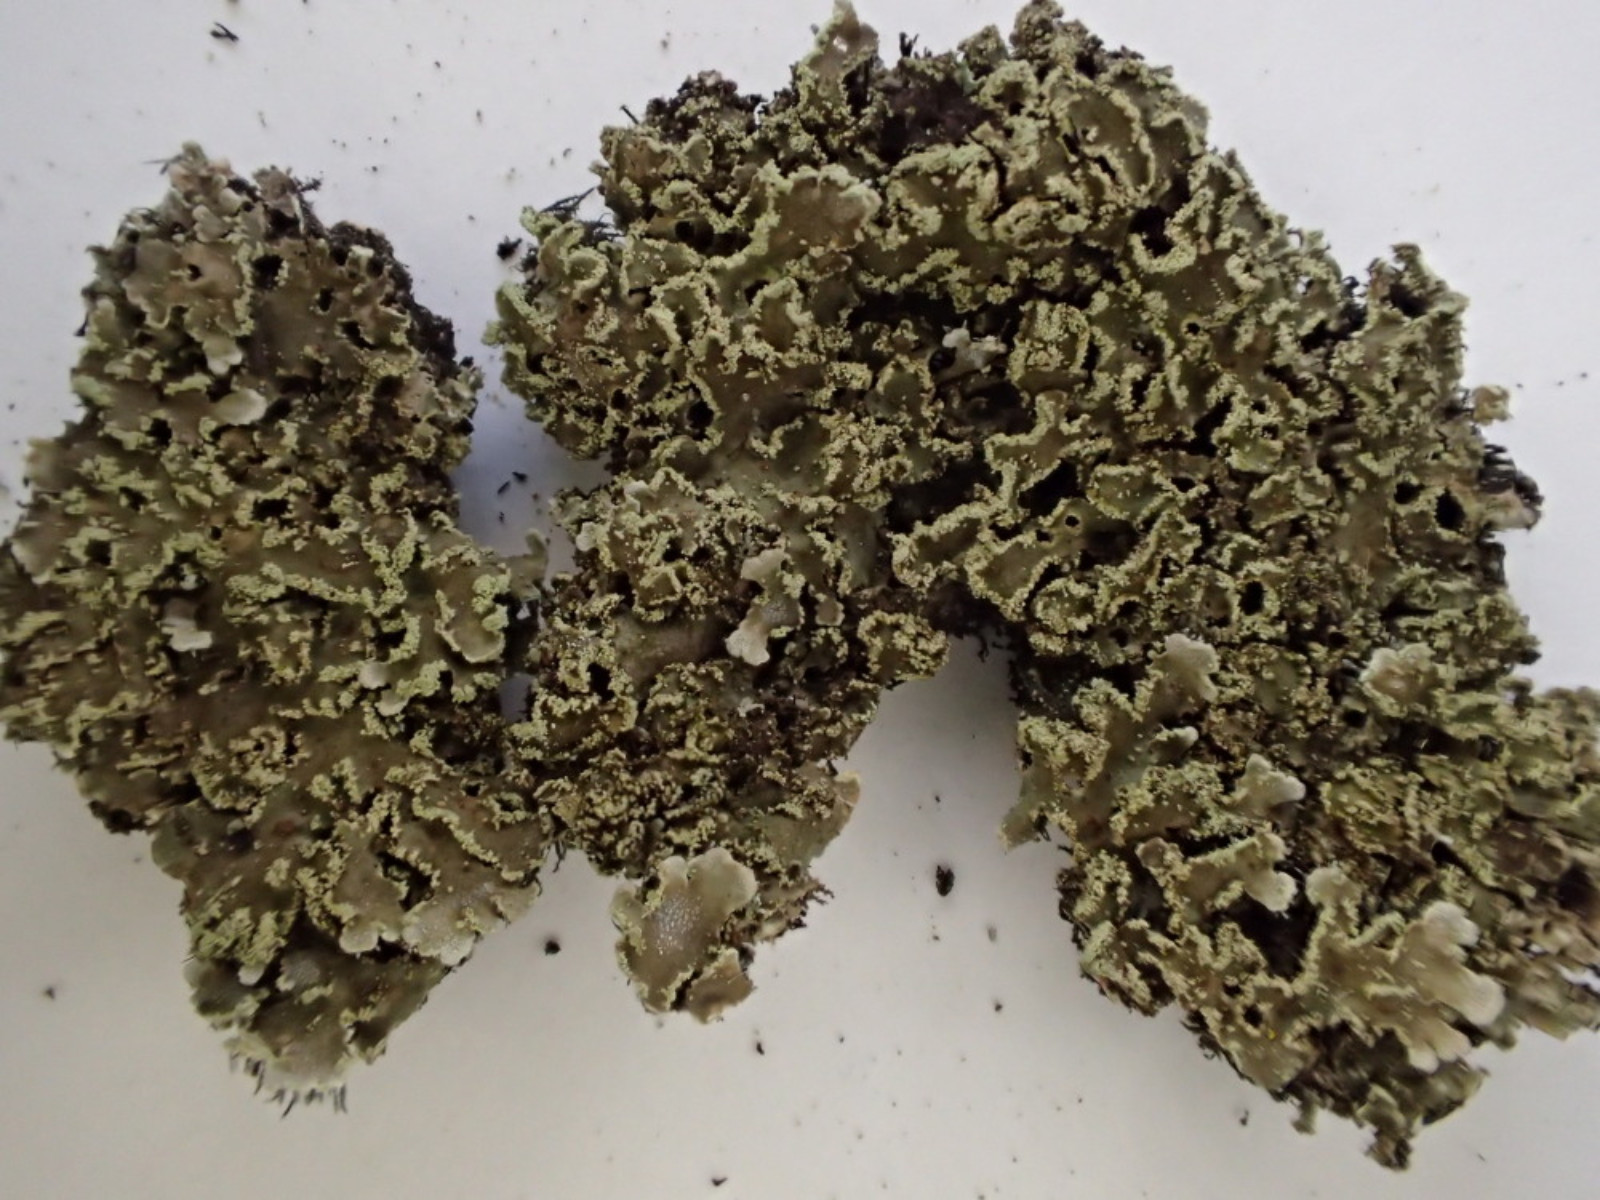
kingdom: Fungi
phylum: Ascomycota
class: Lecanoromycetes
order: Caliciales
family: Physciaceae
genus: Physconia
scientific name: Physconia perisidiosa
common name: liden dugrosetlav
